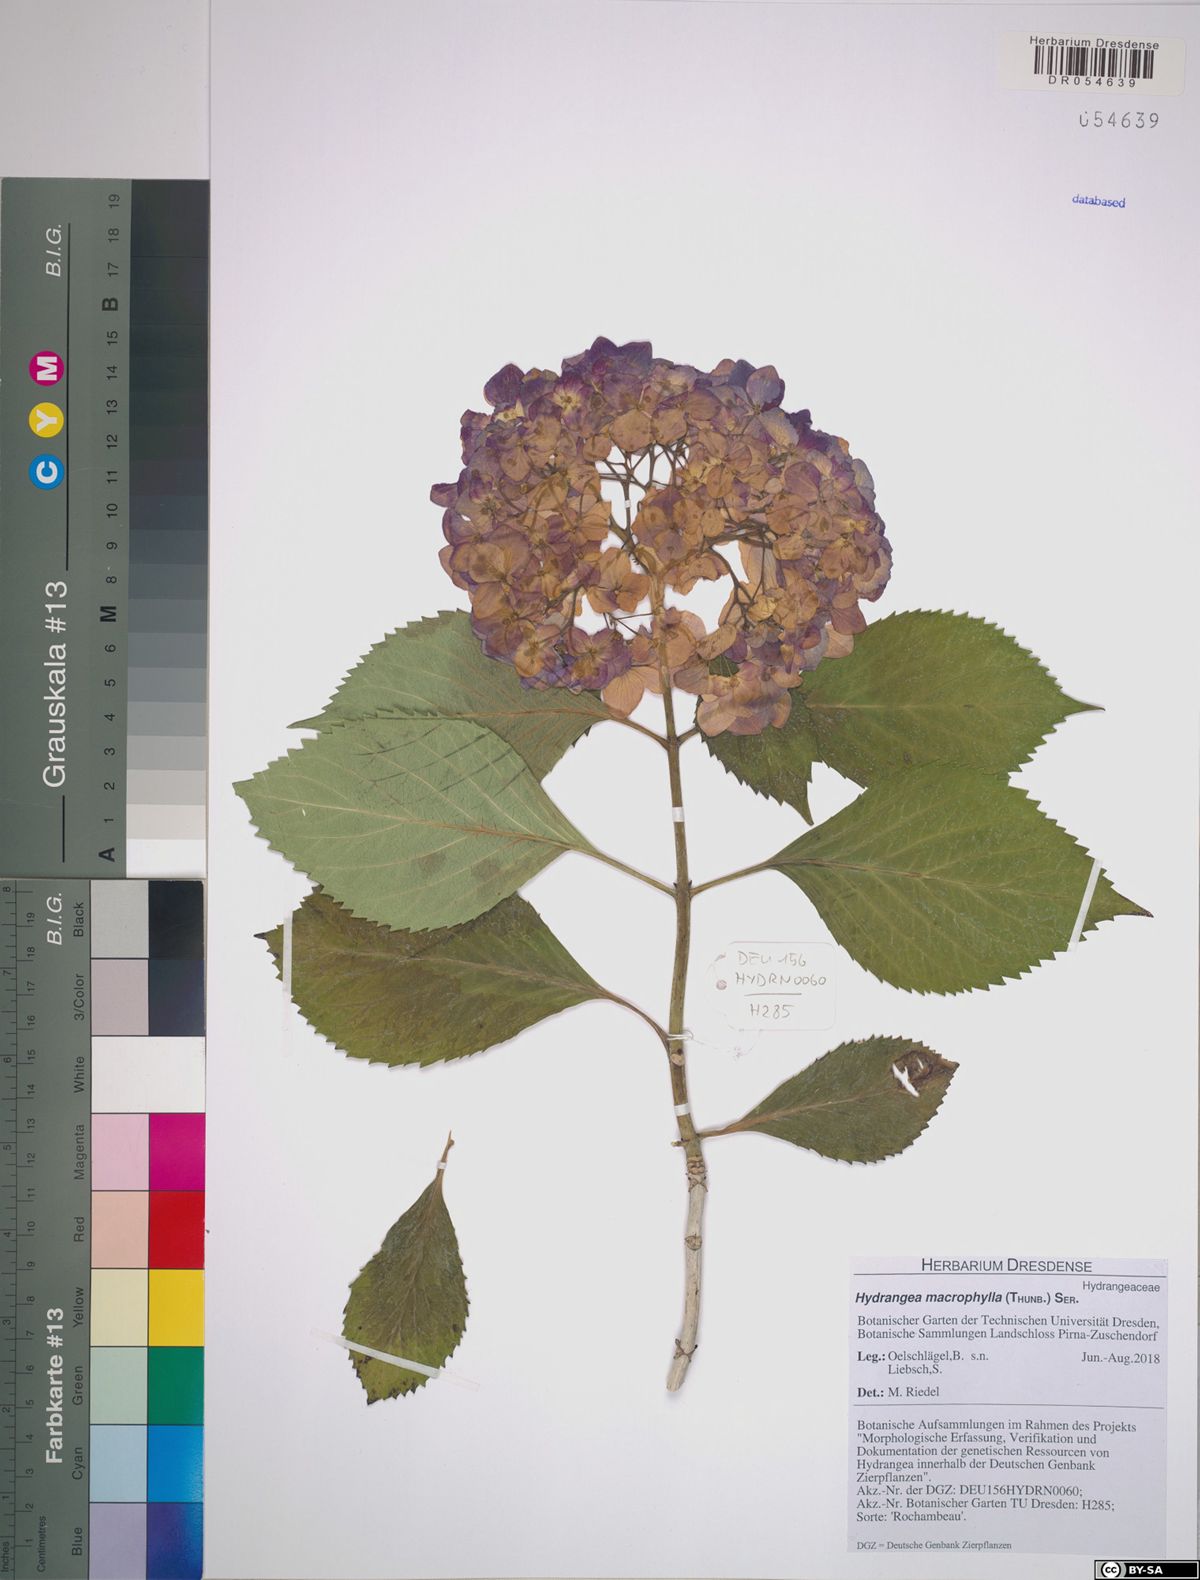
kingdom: Plantae
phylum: Tracheophyta
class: Magnoliopsida
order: Cornales
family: Hydrangeaceae
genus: Hydrangea
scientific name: Hydrangea macrophylla
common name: Hydrangea
